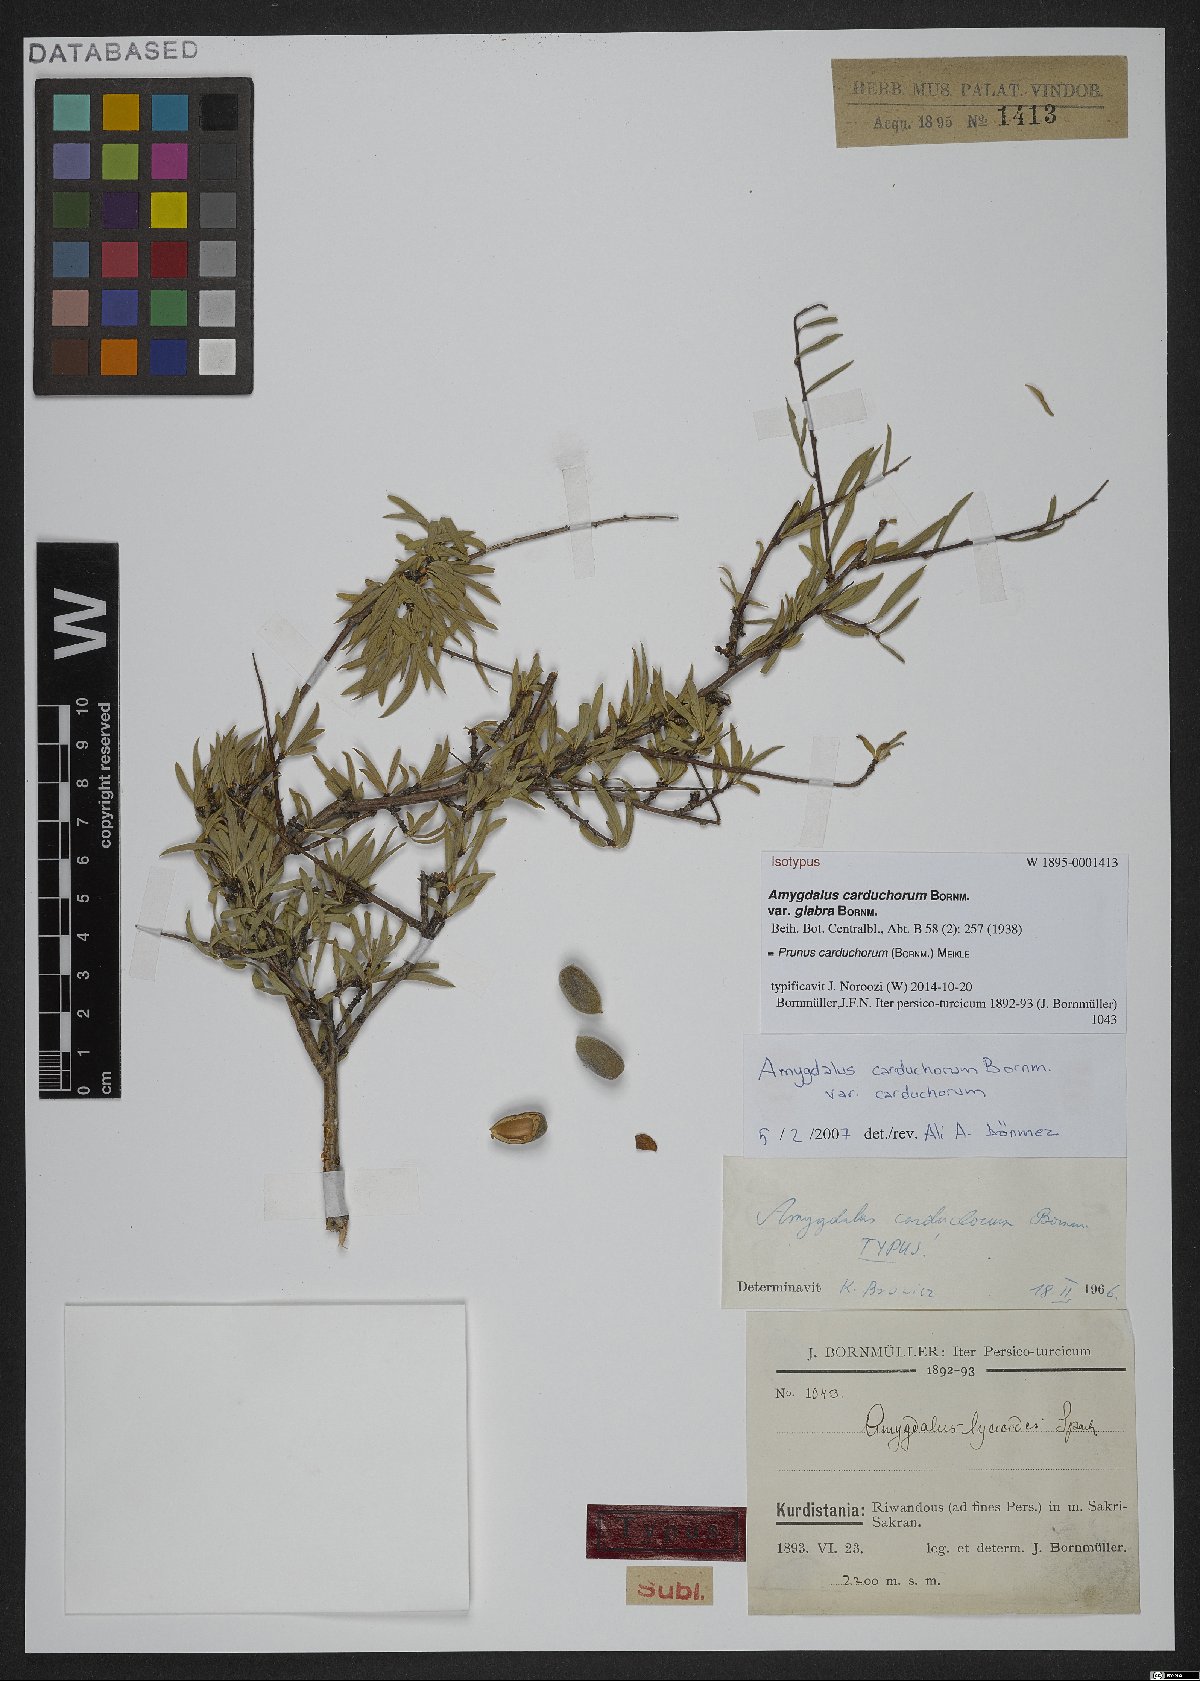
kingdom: Plantae
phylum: Tracheophyta
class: Magnoliopsida
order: Rosales
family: Rosaceae
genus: Prunus
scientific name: Prunus carduchorum
